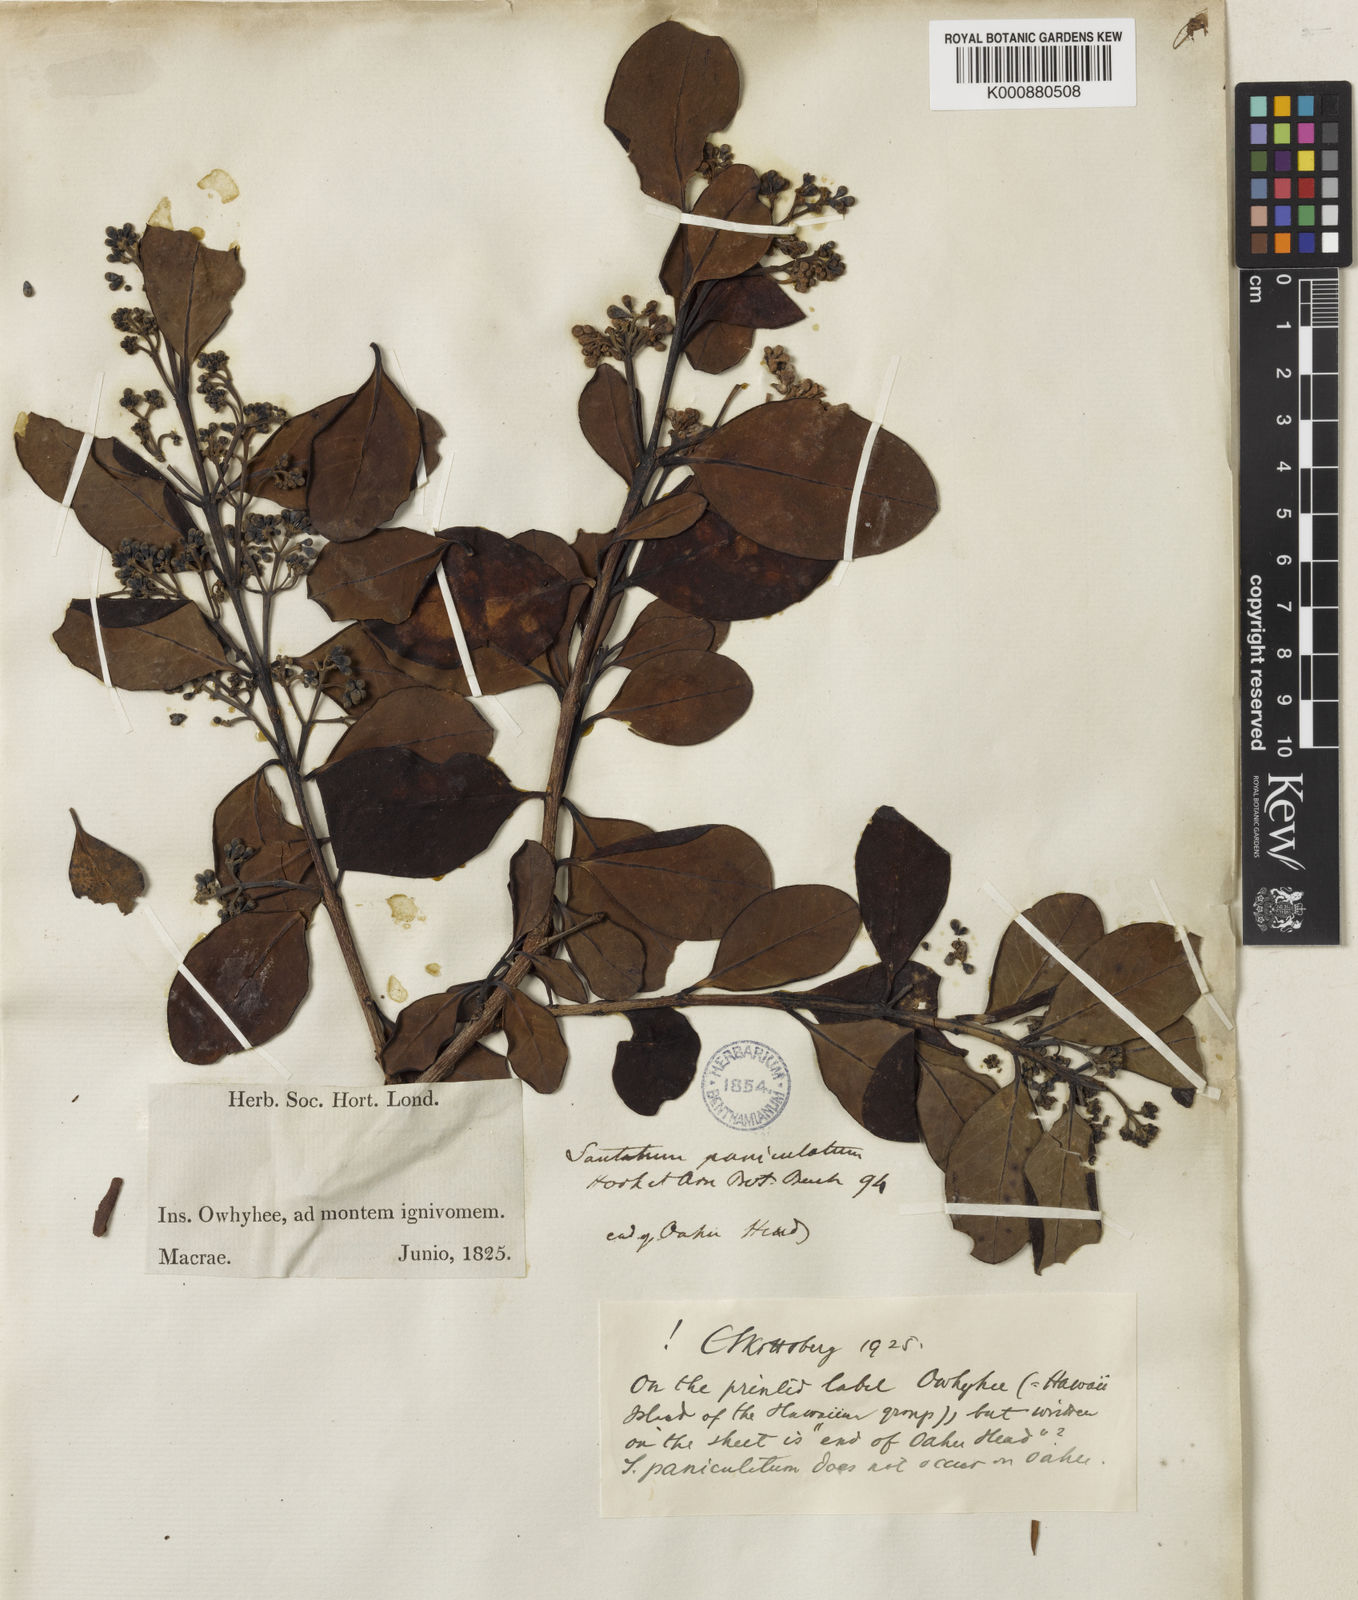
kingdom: Plantae
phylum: Tracheophyta
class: Magnoliopsida
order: Santalales
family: Santalaceae
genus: Santalum
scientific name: Santalum paniculatum
